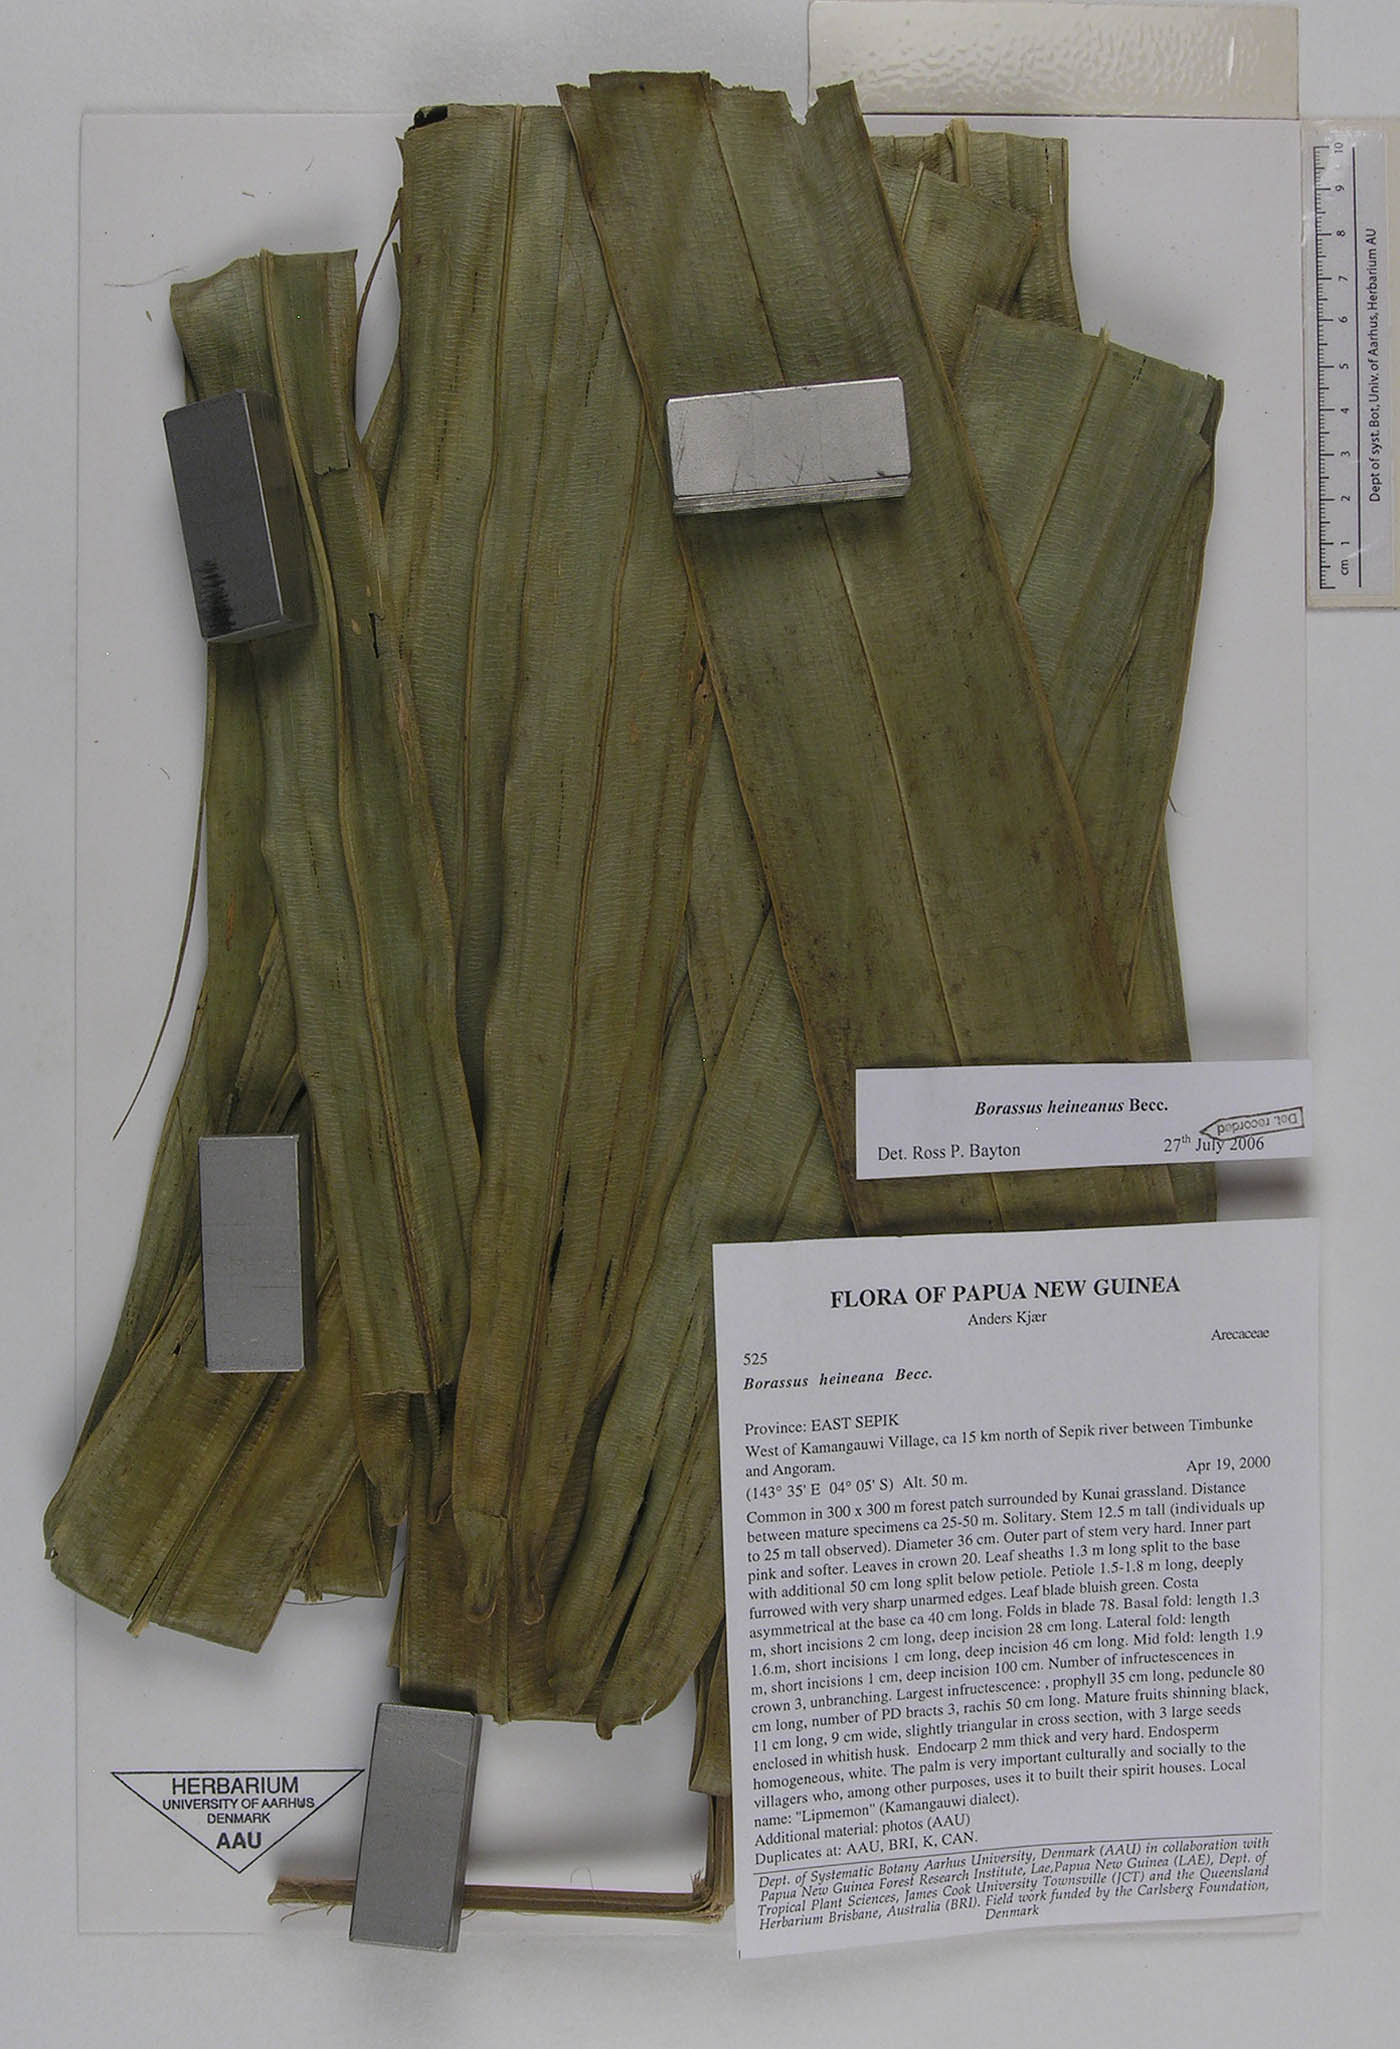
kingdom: Plantae
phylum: Tracheophyta
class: Liliopsida
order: Arecales
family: Arecaceae
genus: Borassus
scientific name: Borassus heineanus
